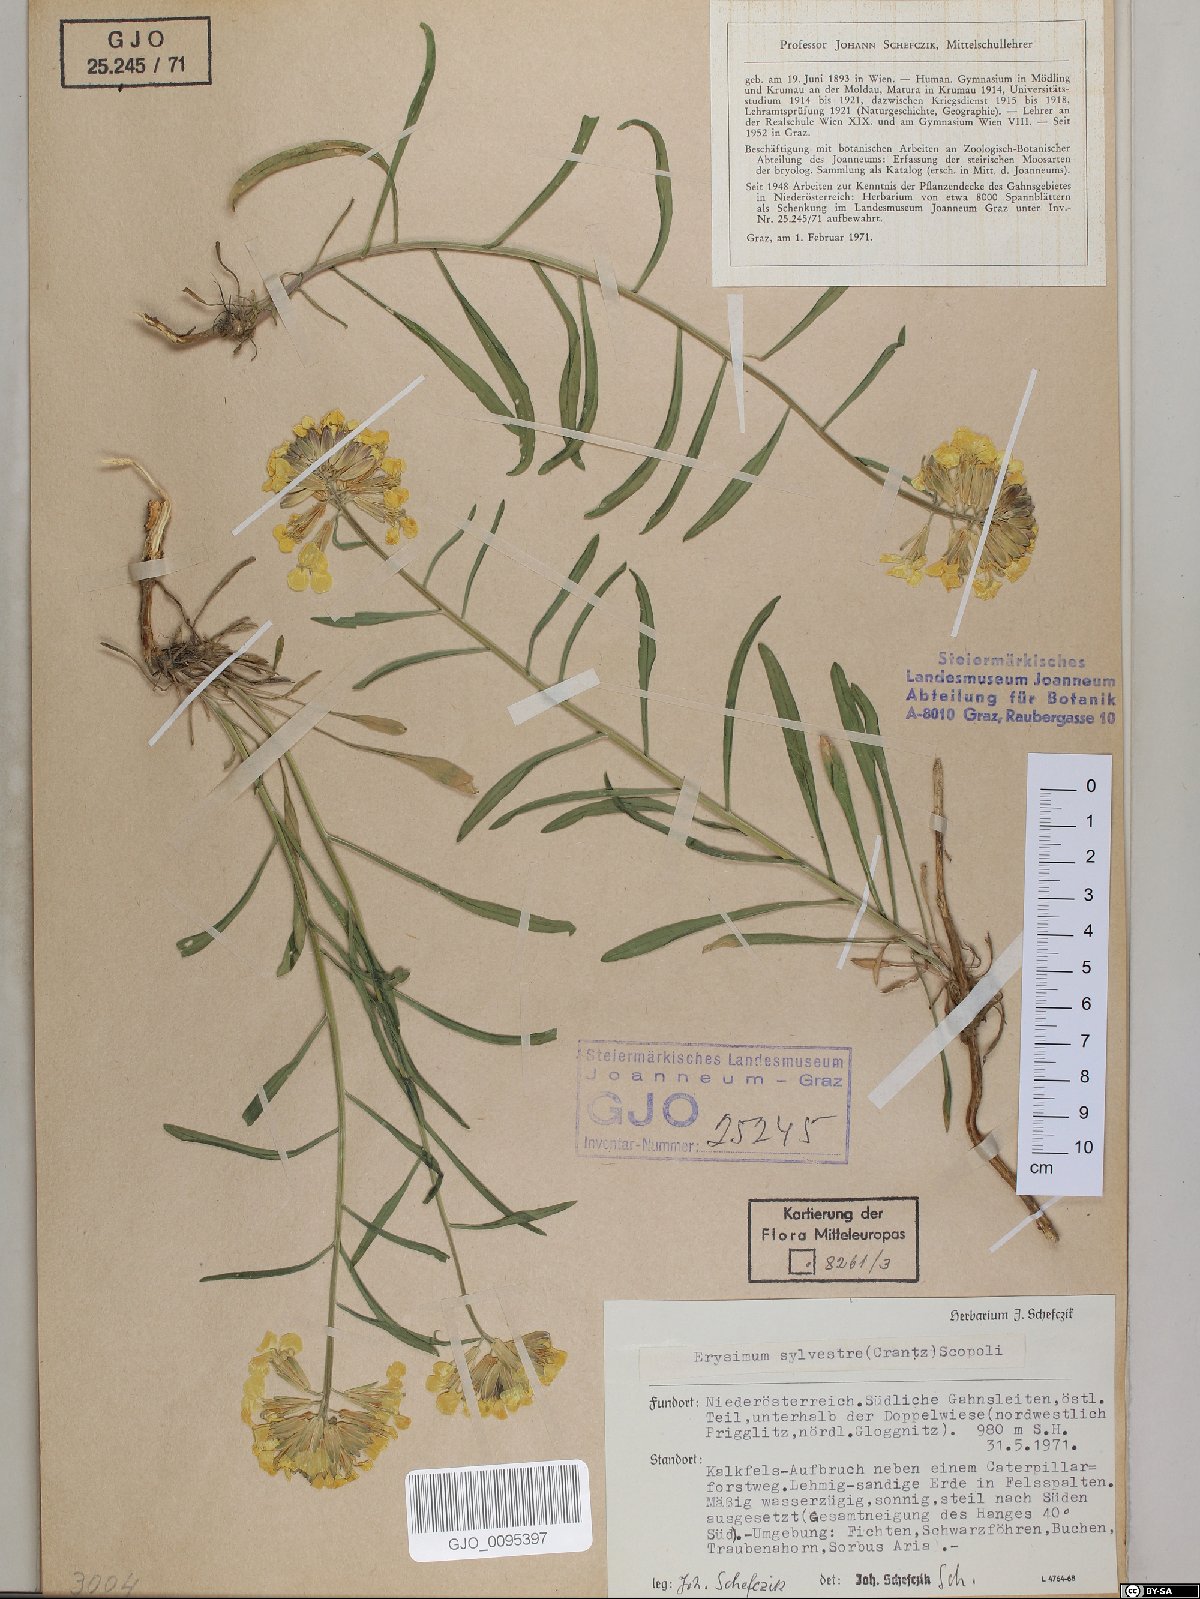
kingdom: Plantae
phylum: Tracheophyta
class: Magnoliopsida
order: Brassicales
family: Brassicaceae
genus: Erysimum
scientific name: Erysimum sylvestre
